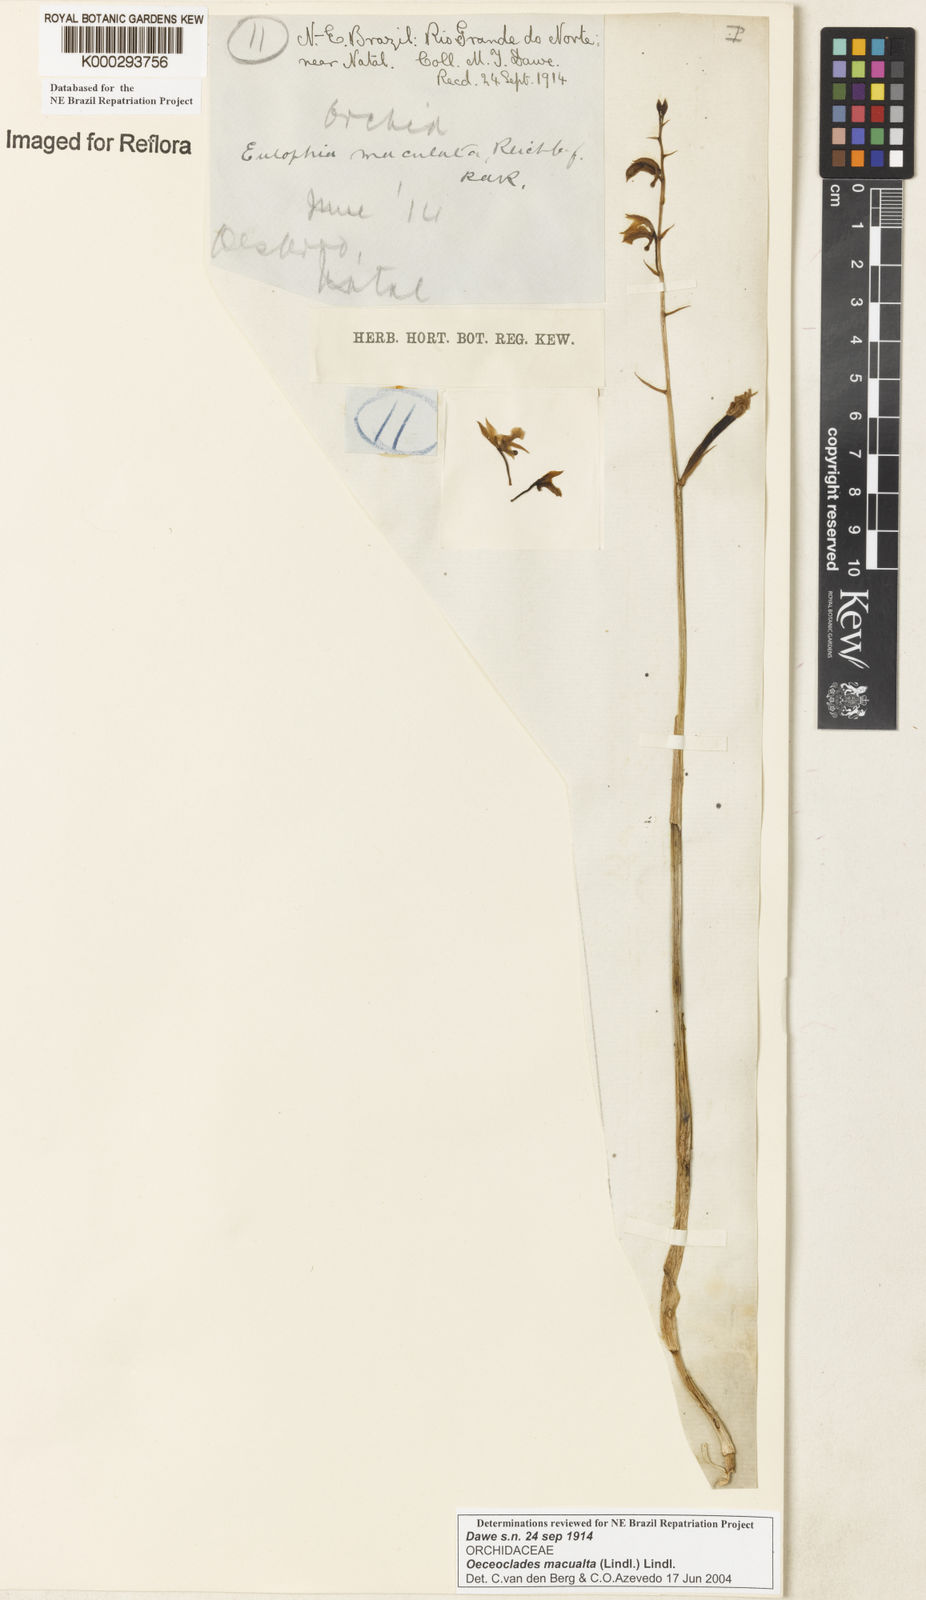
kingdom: Plantae
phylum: Tracheophyta
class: Liliopsida
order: Asparagales
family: Orchidaceae
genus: Eulophia
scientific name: Eulophia maculata
